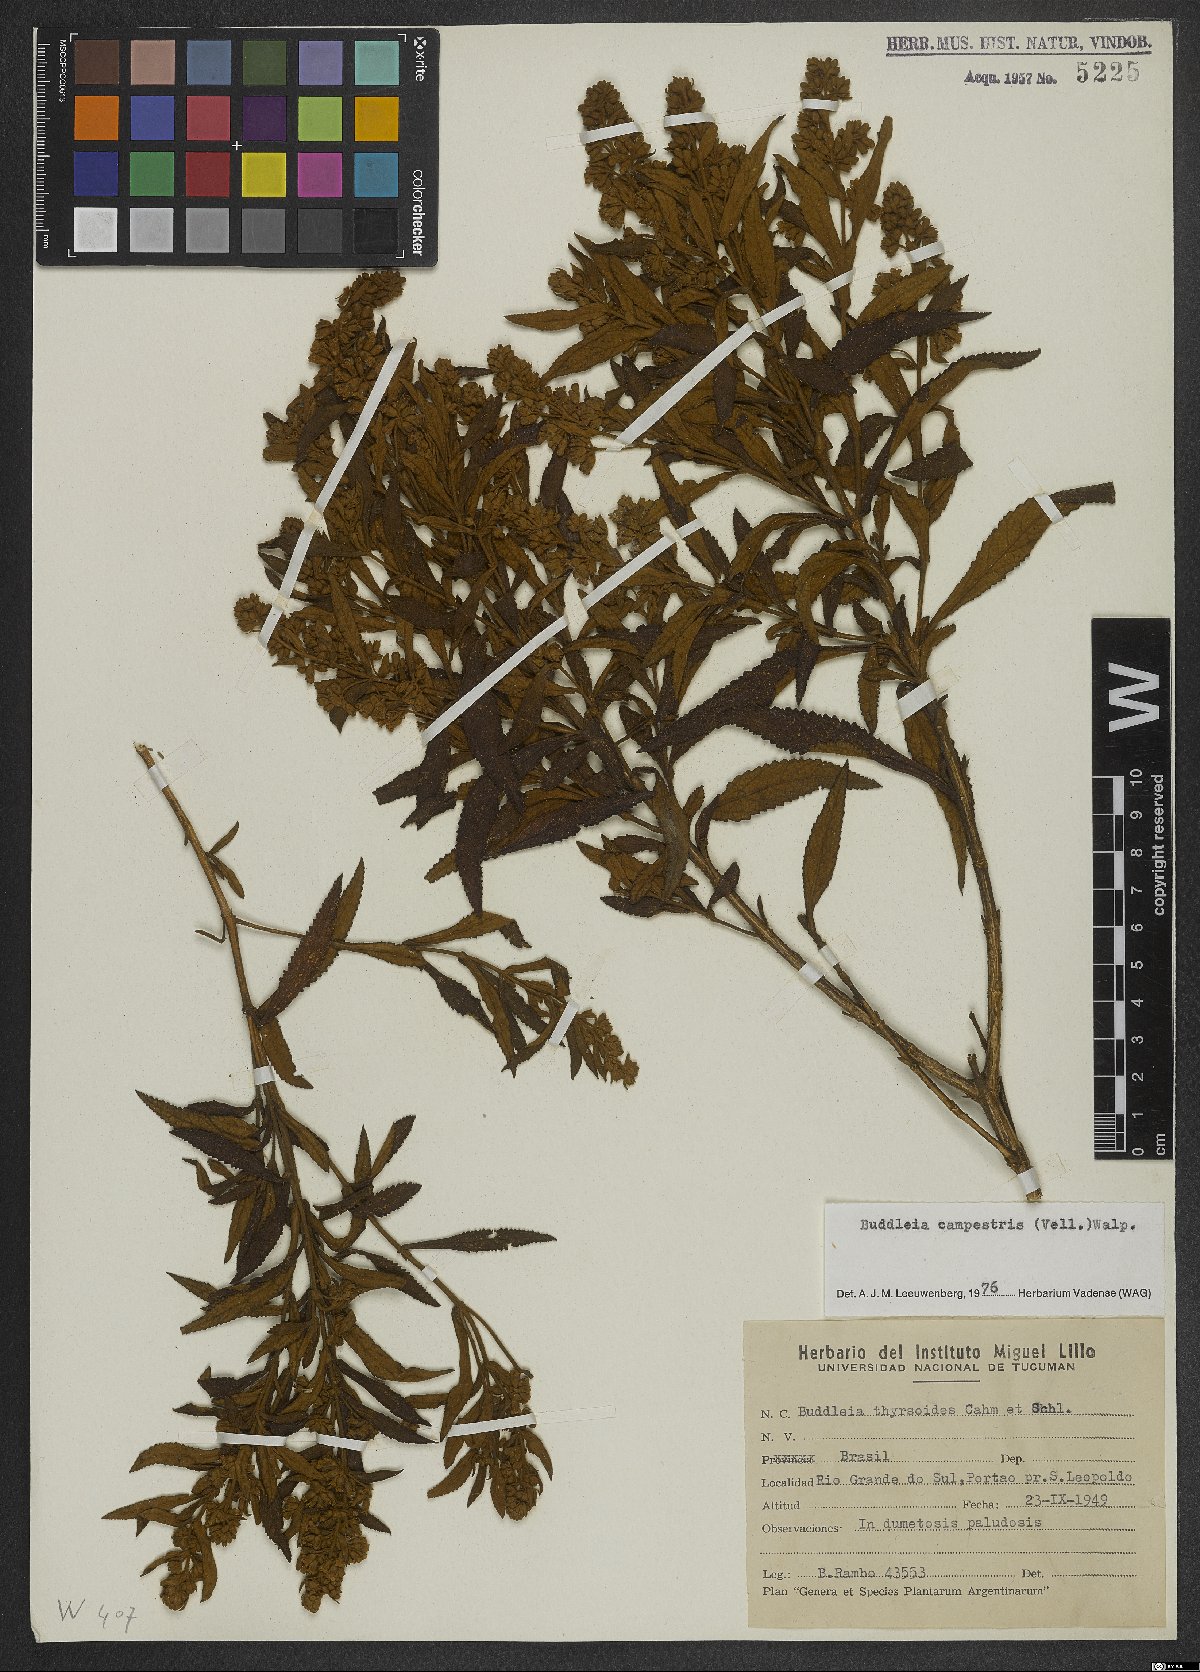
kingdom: Plantae
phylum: Tracheophyta
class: Magnoliopsida
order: Lamiales
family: Scrophulariaceae
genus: Buddleja
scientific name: Buddleja elegans
